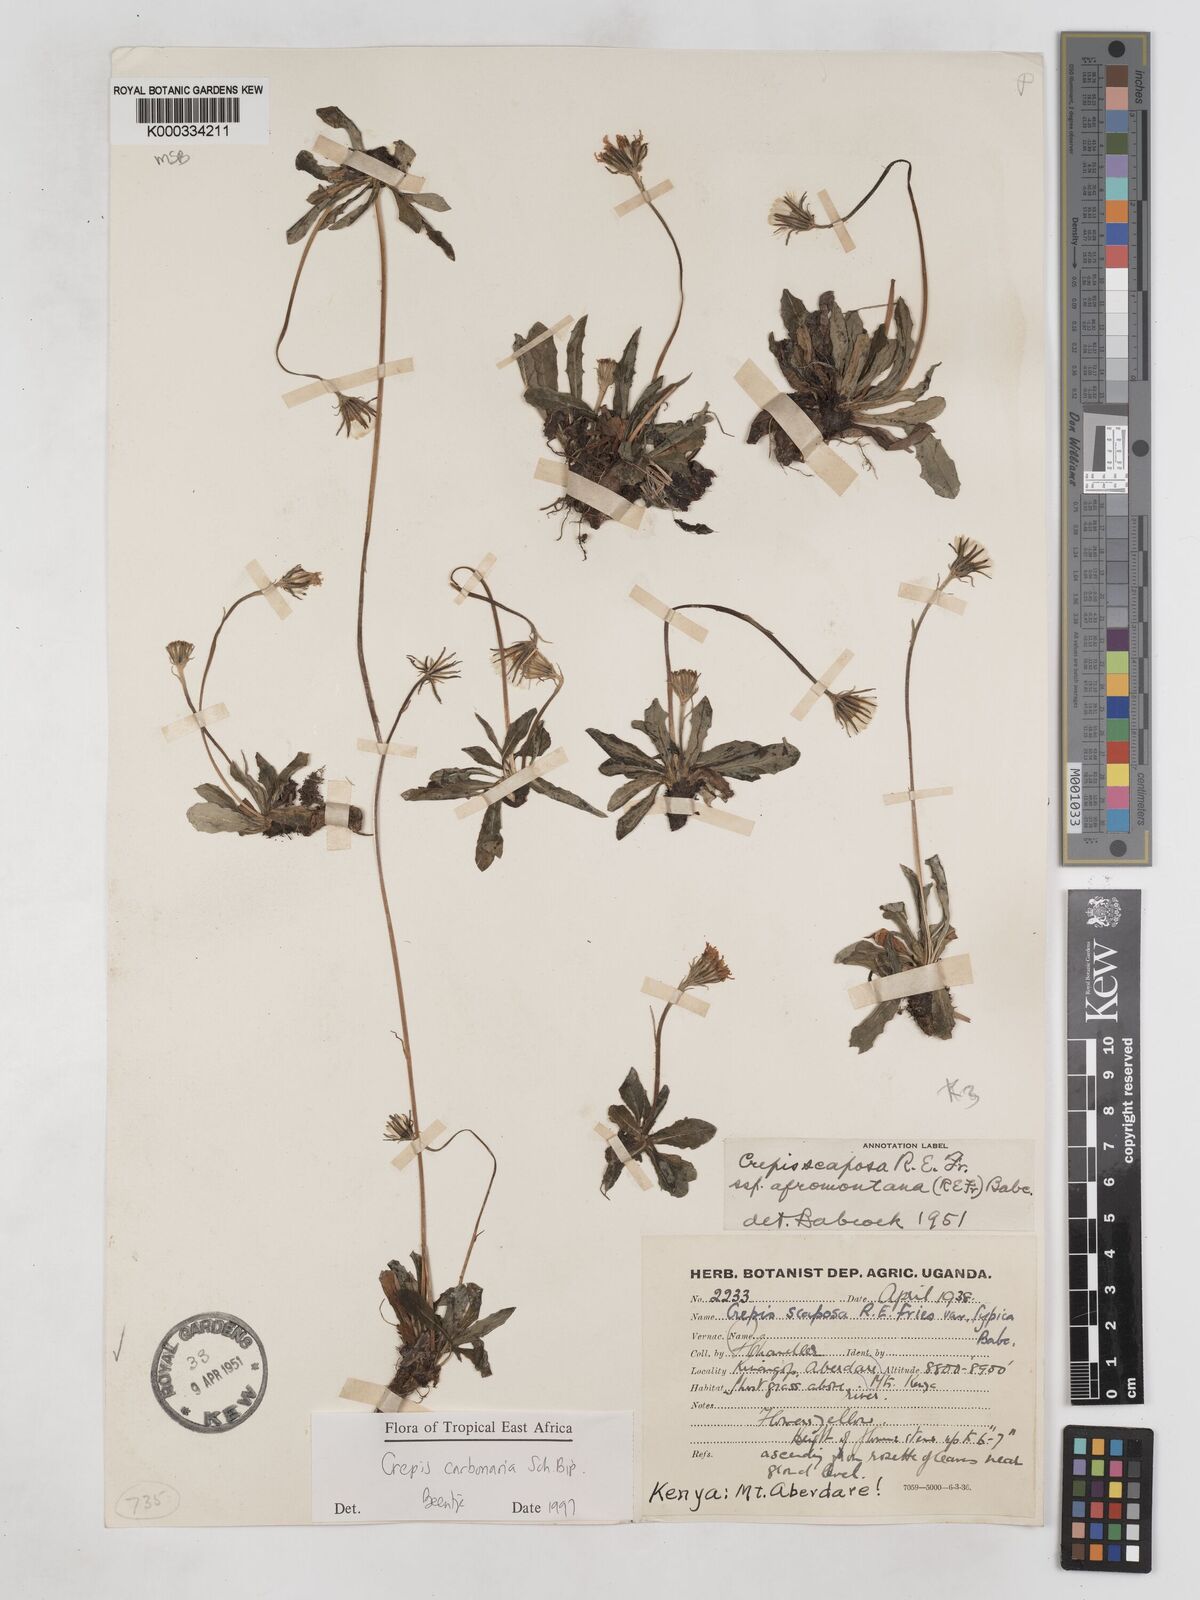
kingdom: Plantae
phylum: Tracheophyta
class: Magnoliopsida
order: Asterales
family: Asteraceae
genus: Crepis
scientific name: Crepis carbonaria
